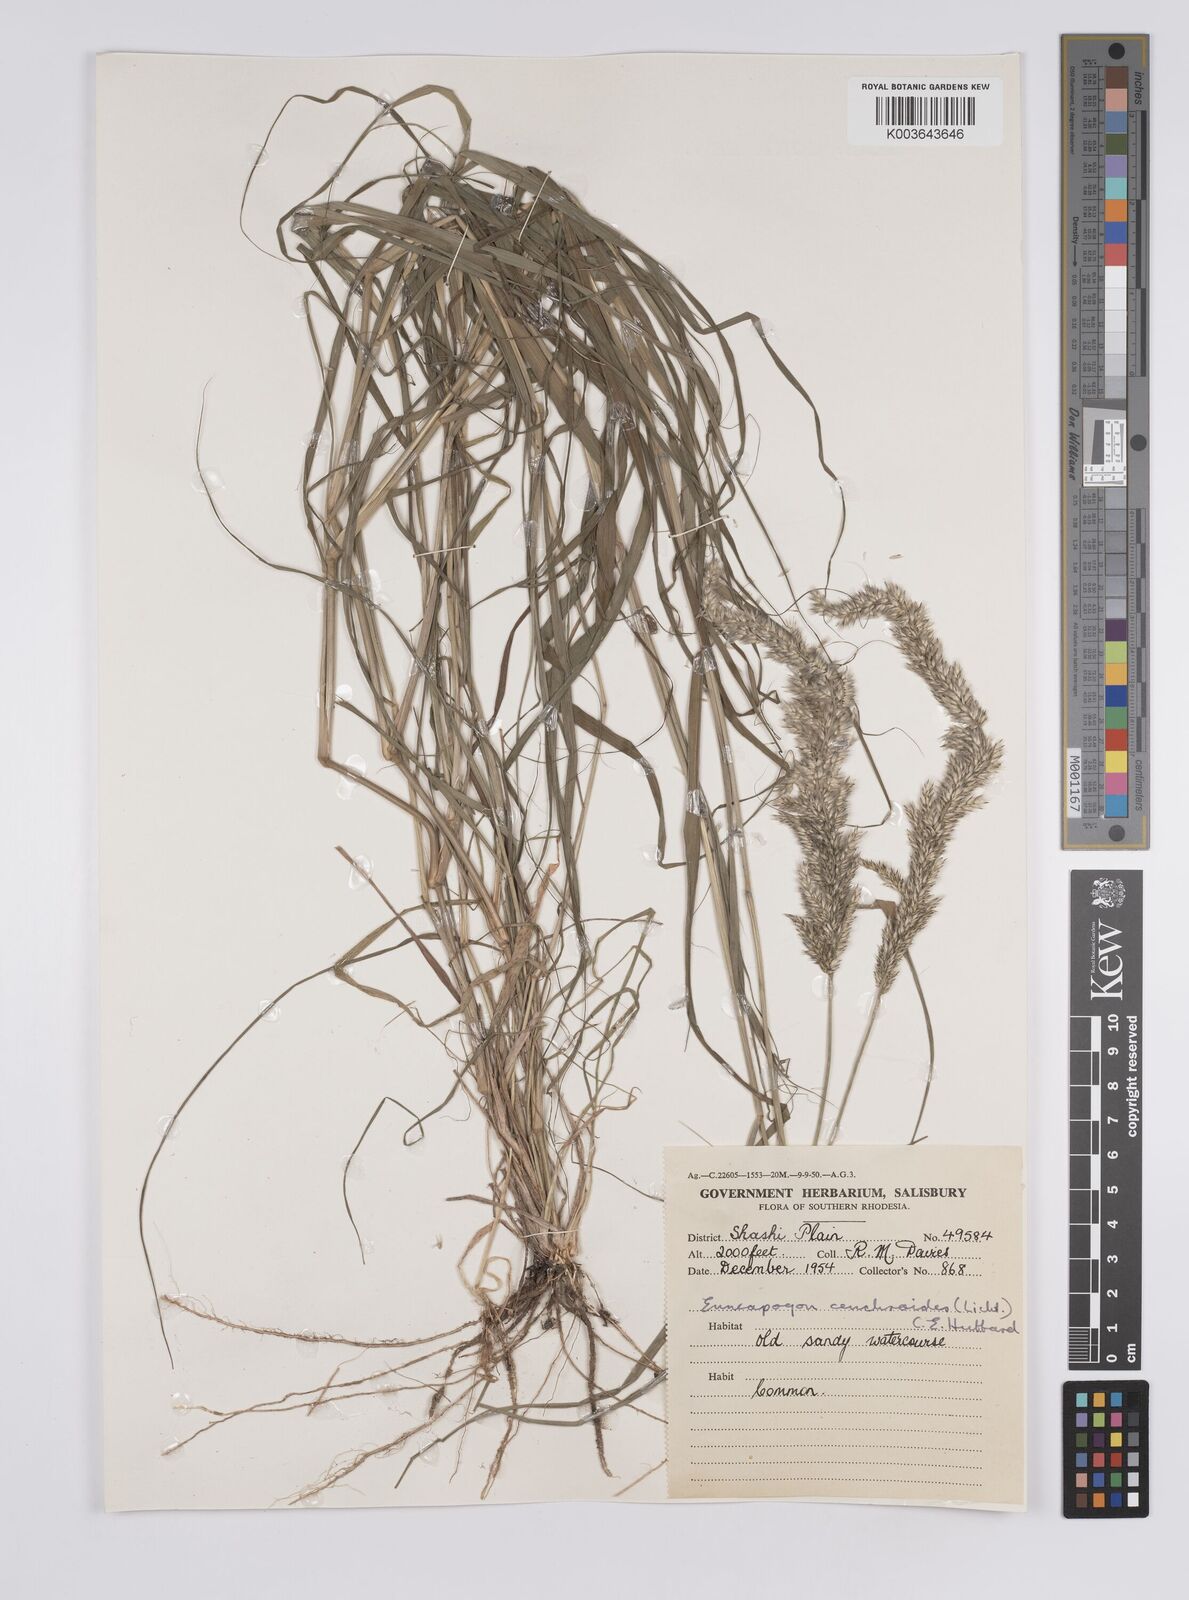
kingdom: Plantae
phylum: Tracheophyta
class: Liliopsida
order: Poales
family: Poaceae
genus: Enneapogon
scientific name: Enneapogon cenchroides
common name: Soft feather pappusgrass
